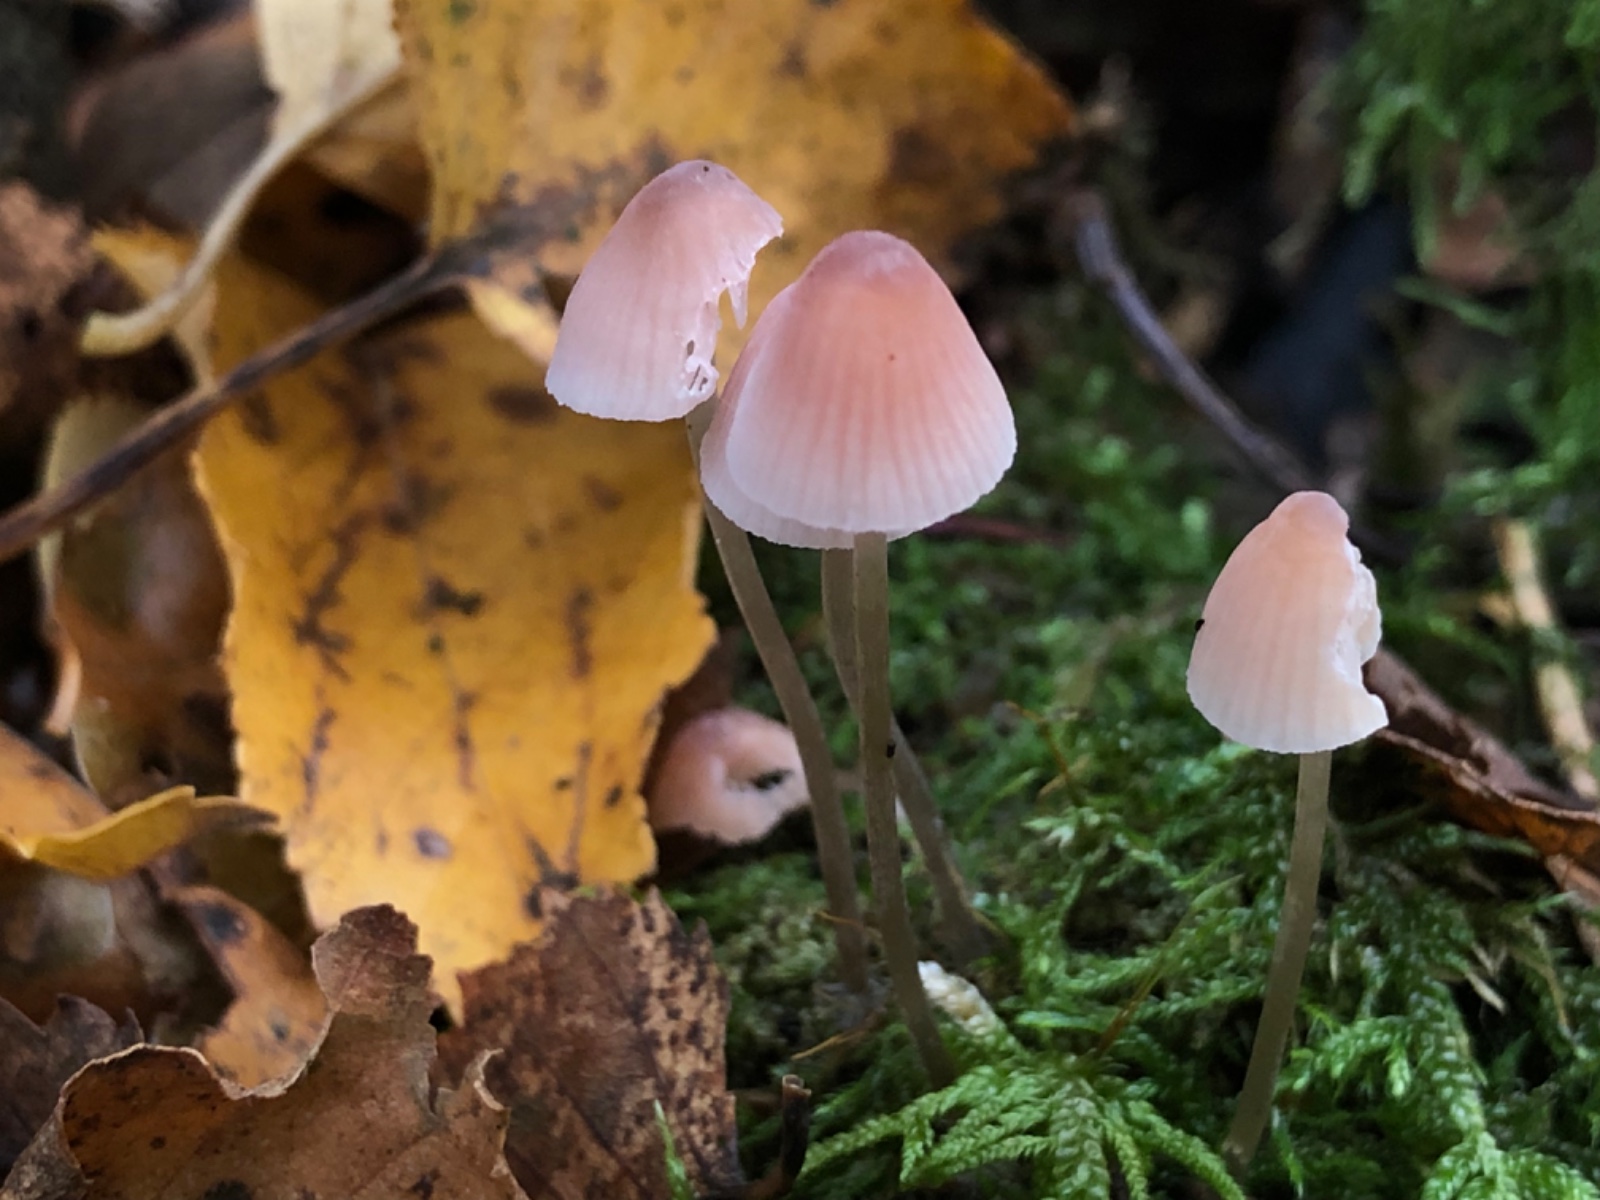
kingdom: Fungi
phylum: Basidiomycota
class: Agaricomycetes
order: Agaricales
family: Mycenaceae
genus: Mycena
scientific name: Mycena filopes
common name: Iodine bonnet
